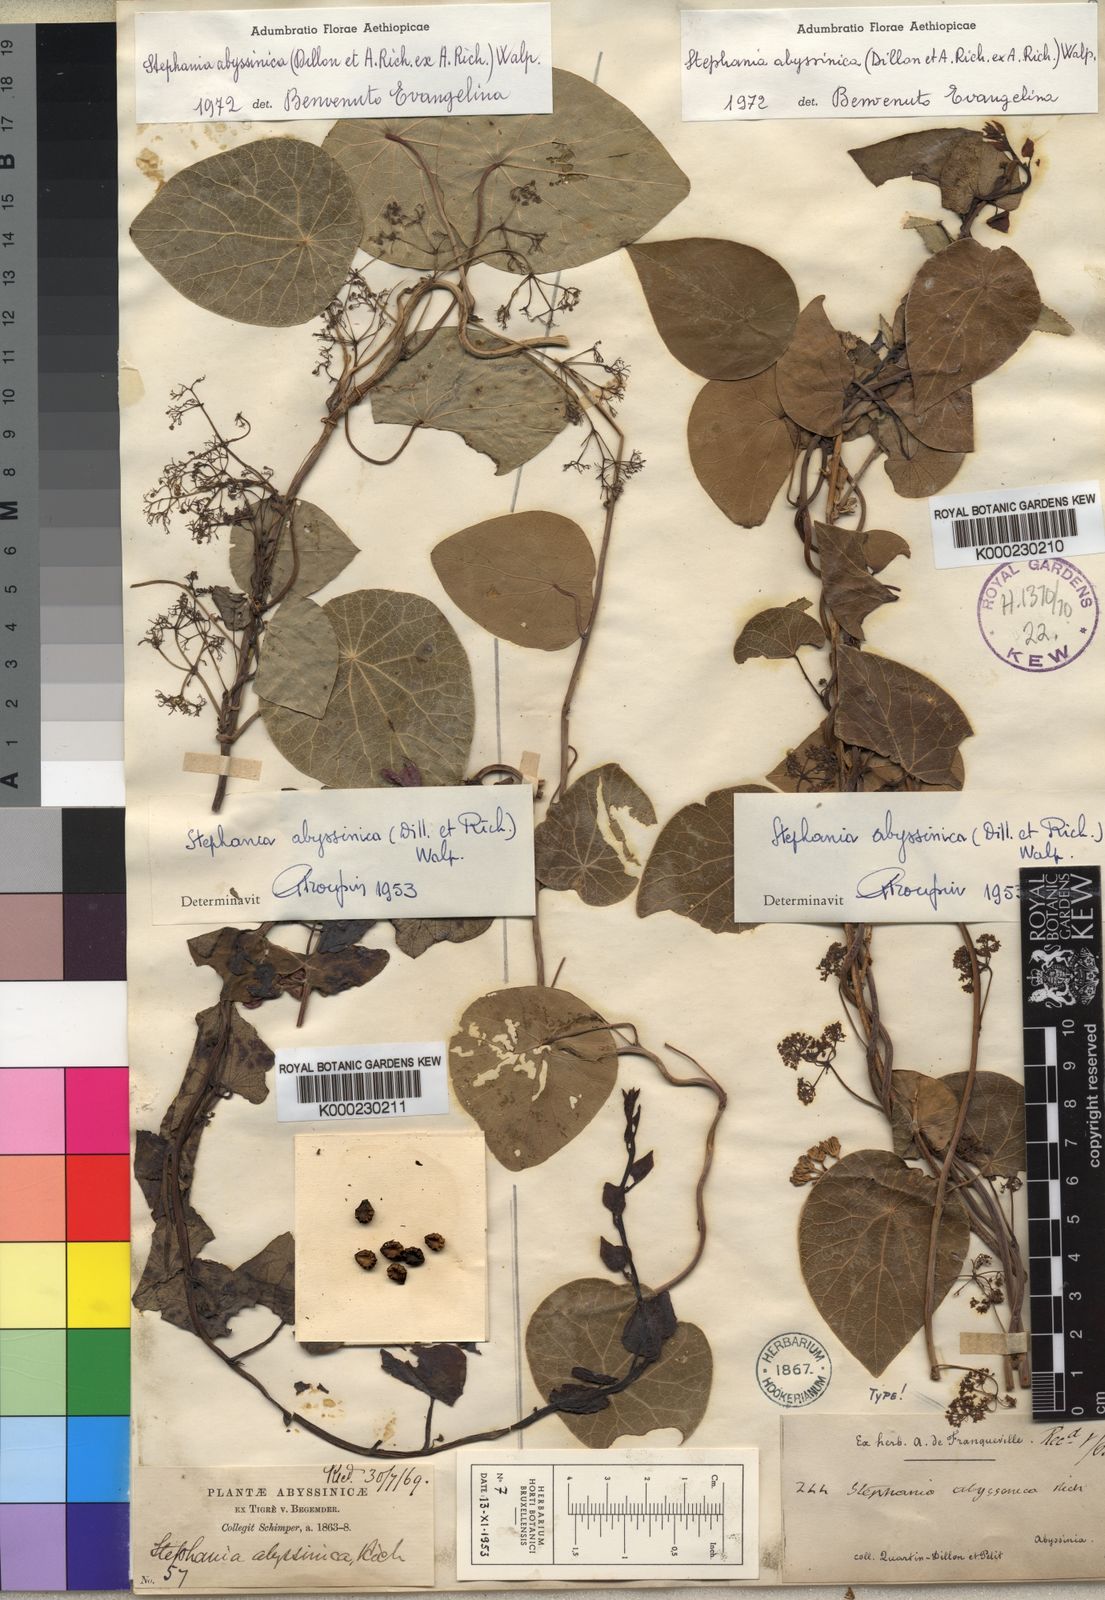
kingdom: Plantae
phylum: Tracheophyta
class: Magnoliopsida
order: Ranunculales
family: Menispermaceae
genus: Stephania
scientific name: Stephania abyssinica
